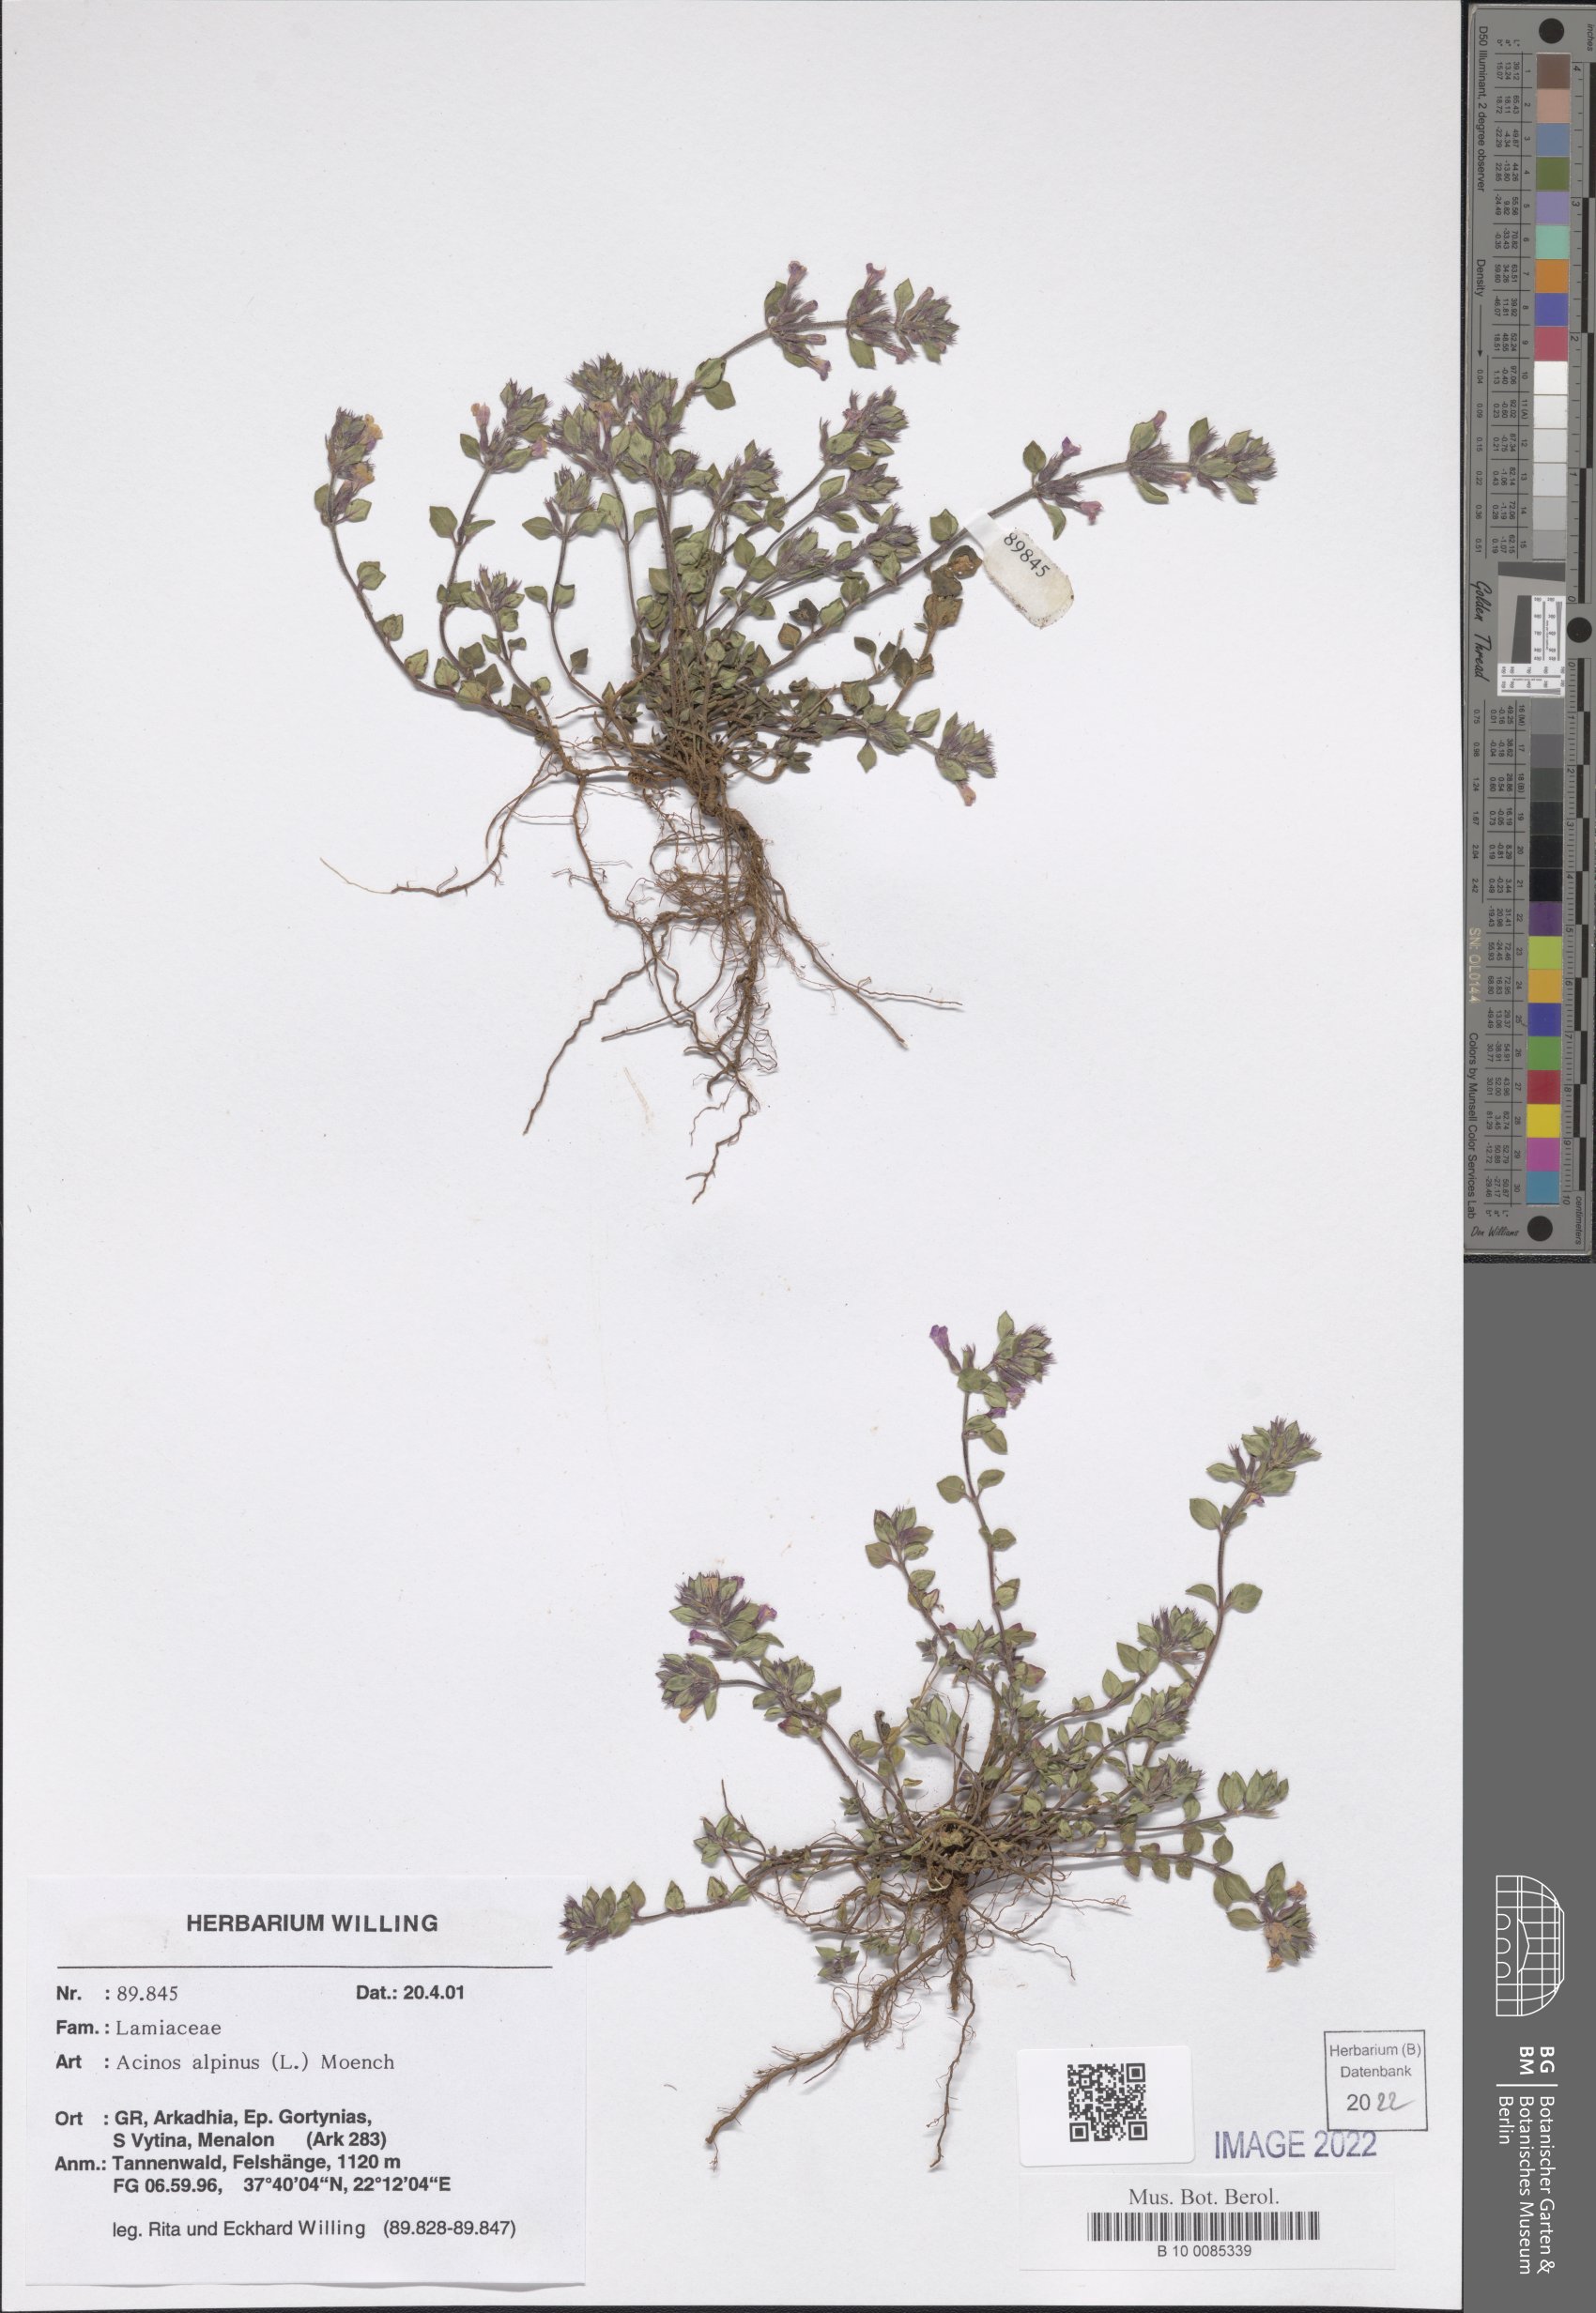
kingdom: Plantae
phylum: Tracheophyta
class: Magnoliopsida
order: Lamiales
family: Lamiaceae
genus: Clinopodium
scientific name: Clinopodium alpinum
